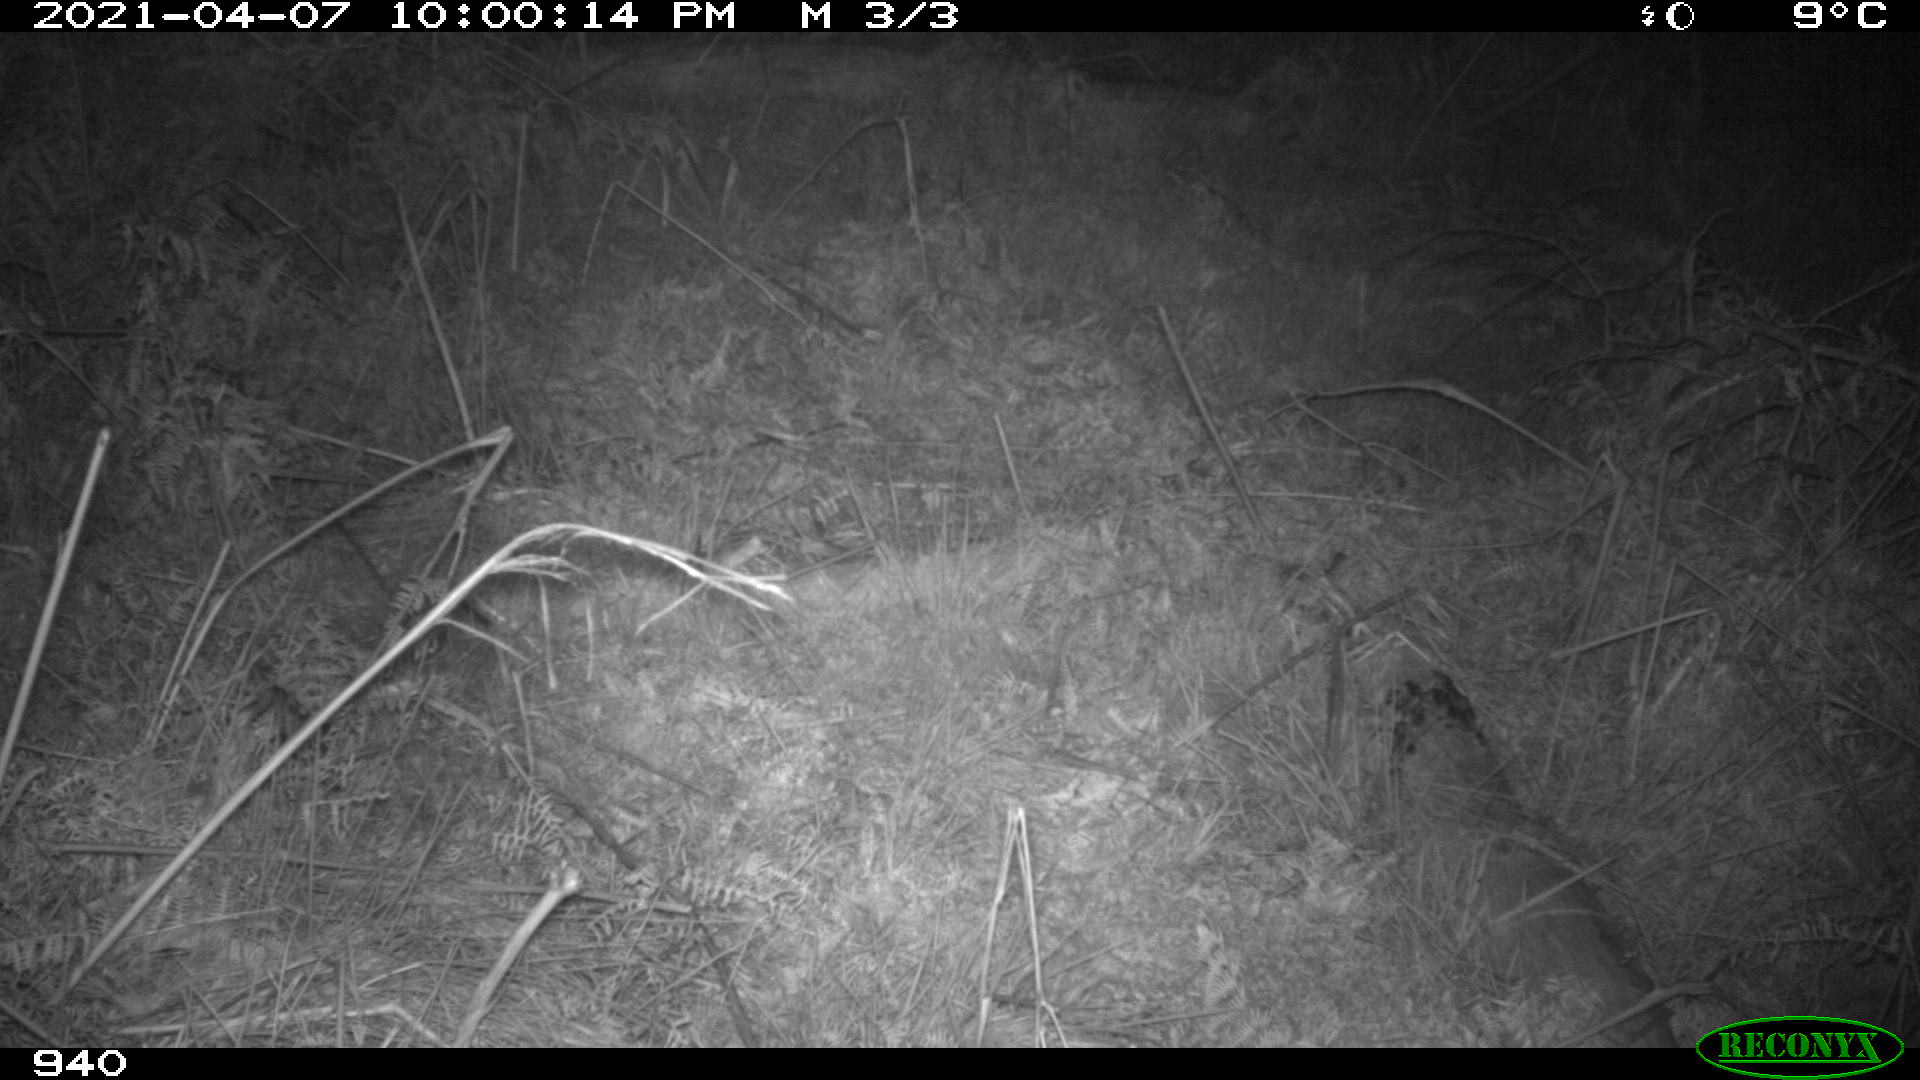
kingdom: Animalia
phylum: Chordata
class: Mammalia
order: Carnivora
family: Canidae
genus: Vulpes
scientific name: Vulpes vulpes
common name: Red fox
